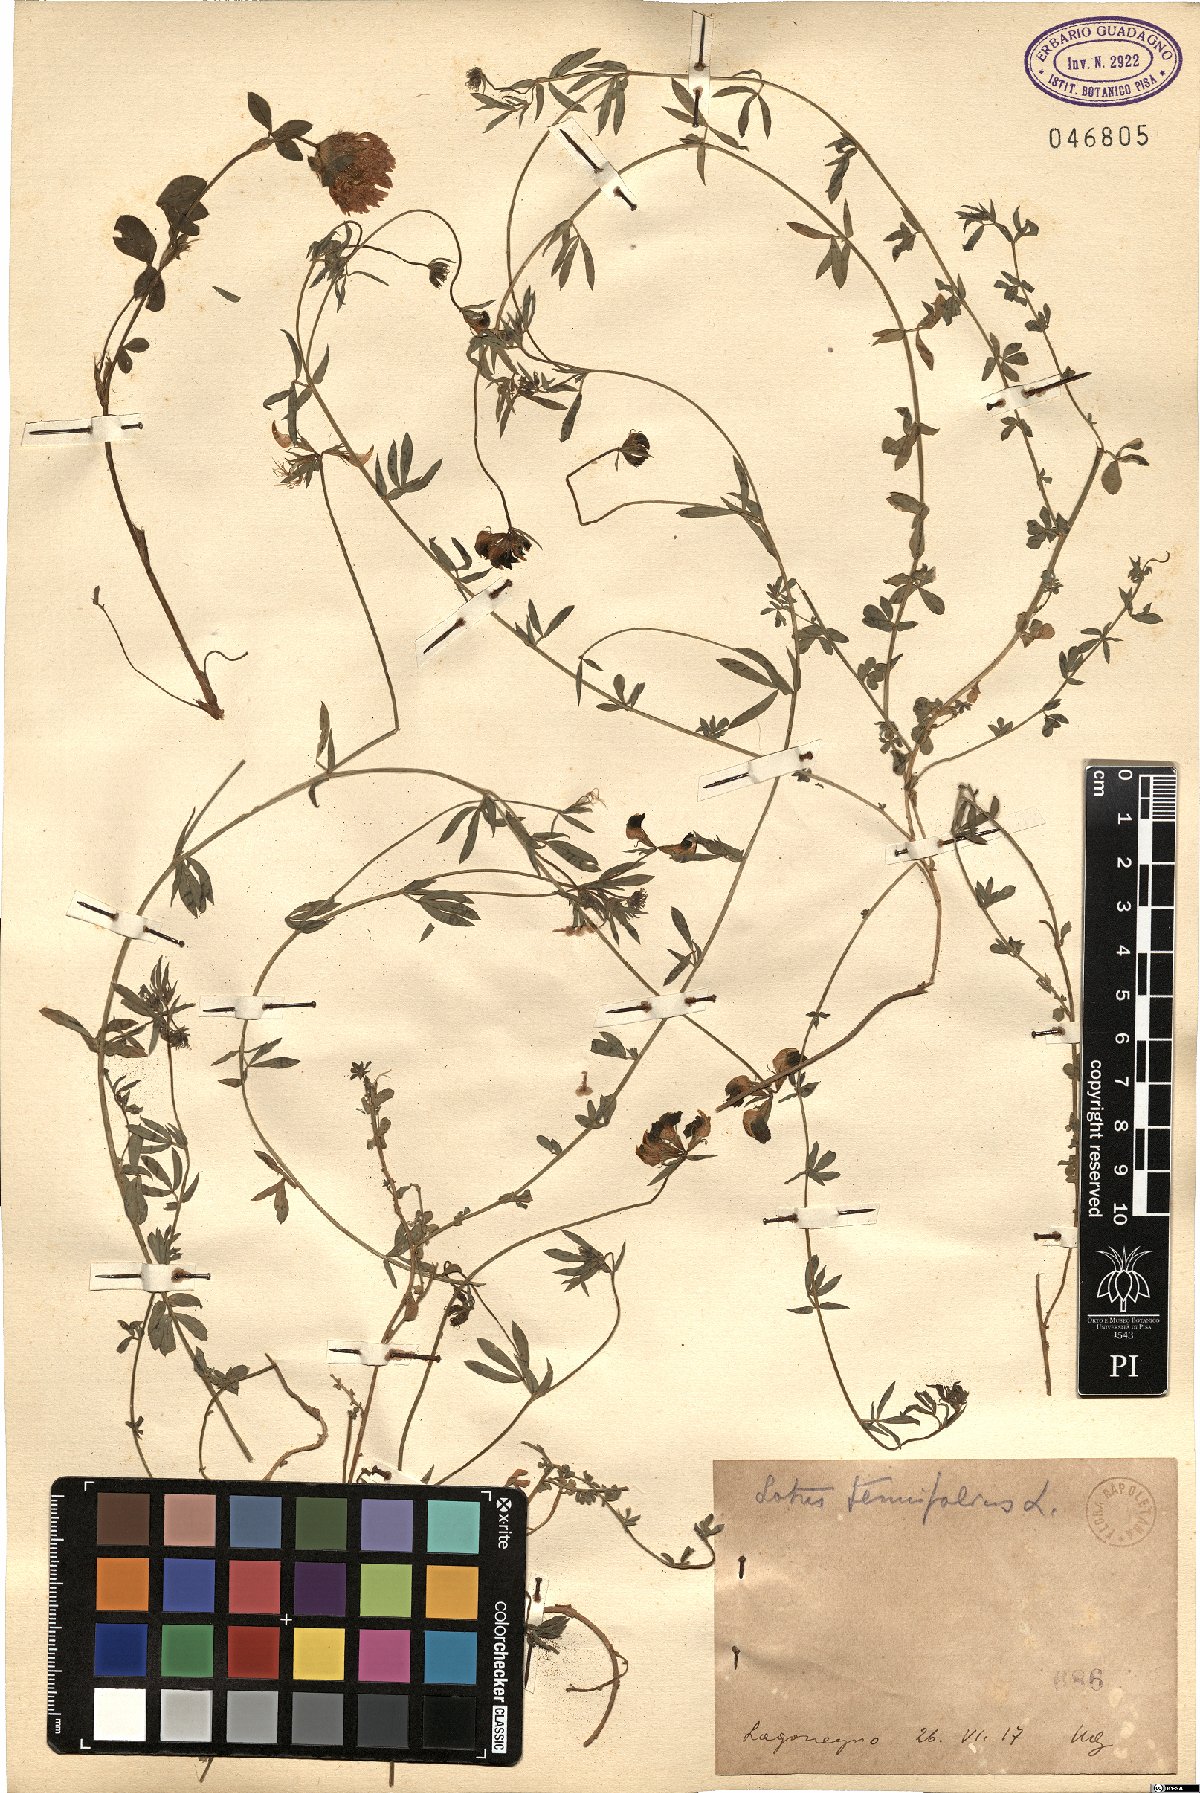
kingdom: Plantae
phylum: Tracheophyta
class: Magnoliopsida
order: Fabales
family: Fabaceae
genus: Lotus
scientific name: Lotus corniculatus
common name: Common bird's-foot-trefoil
